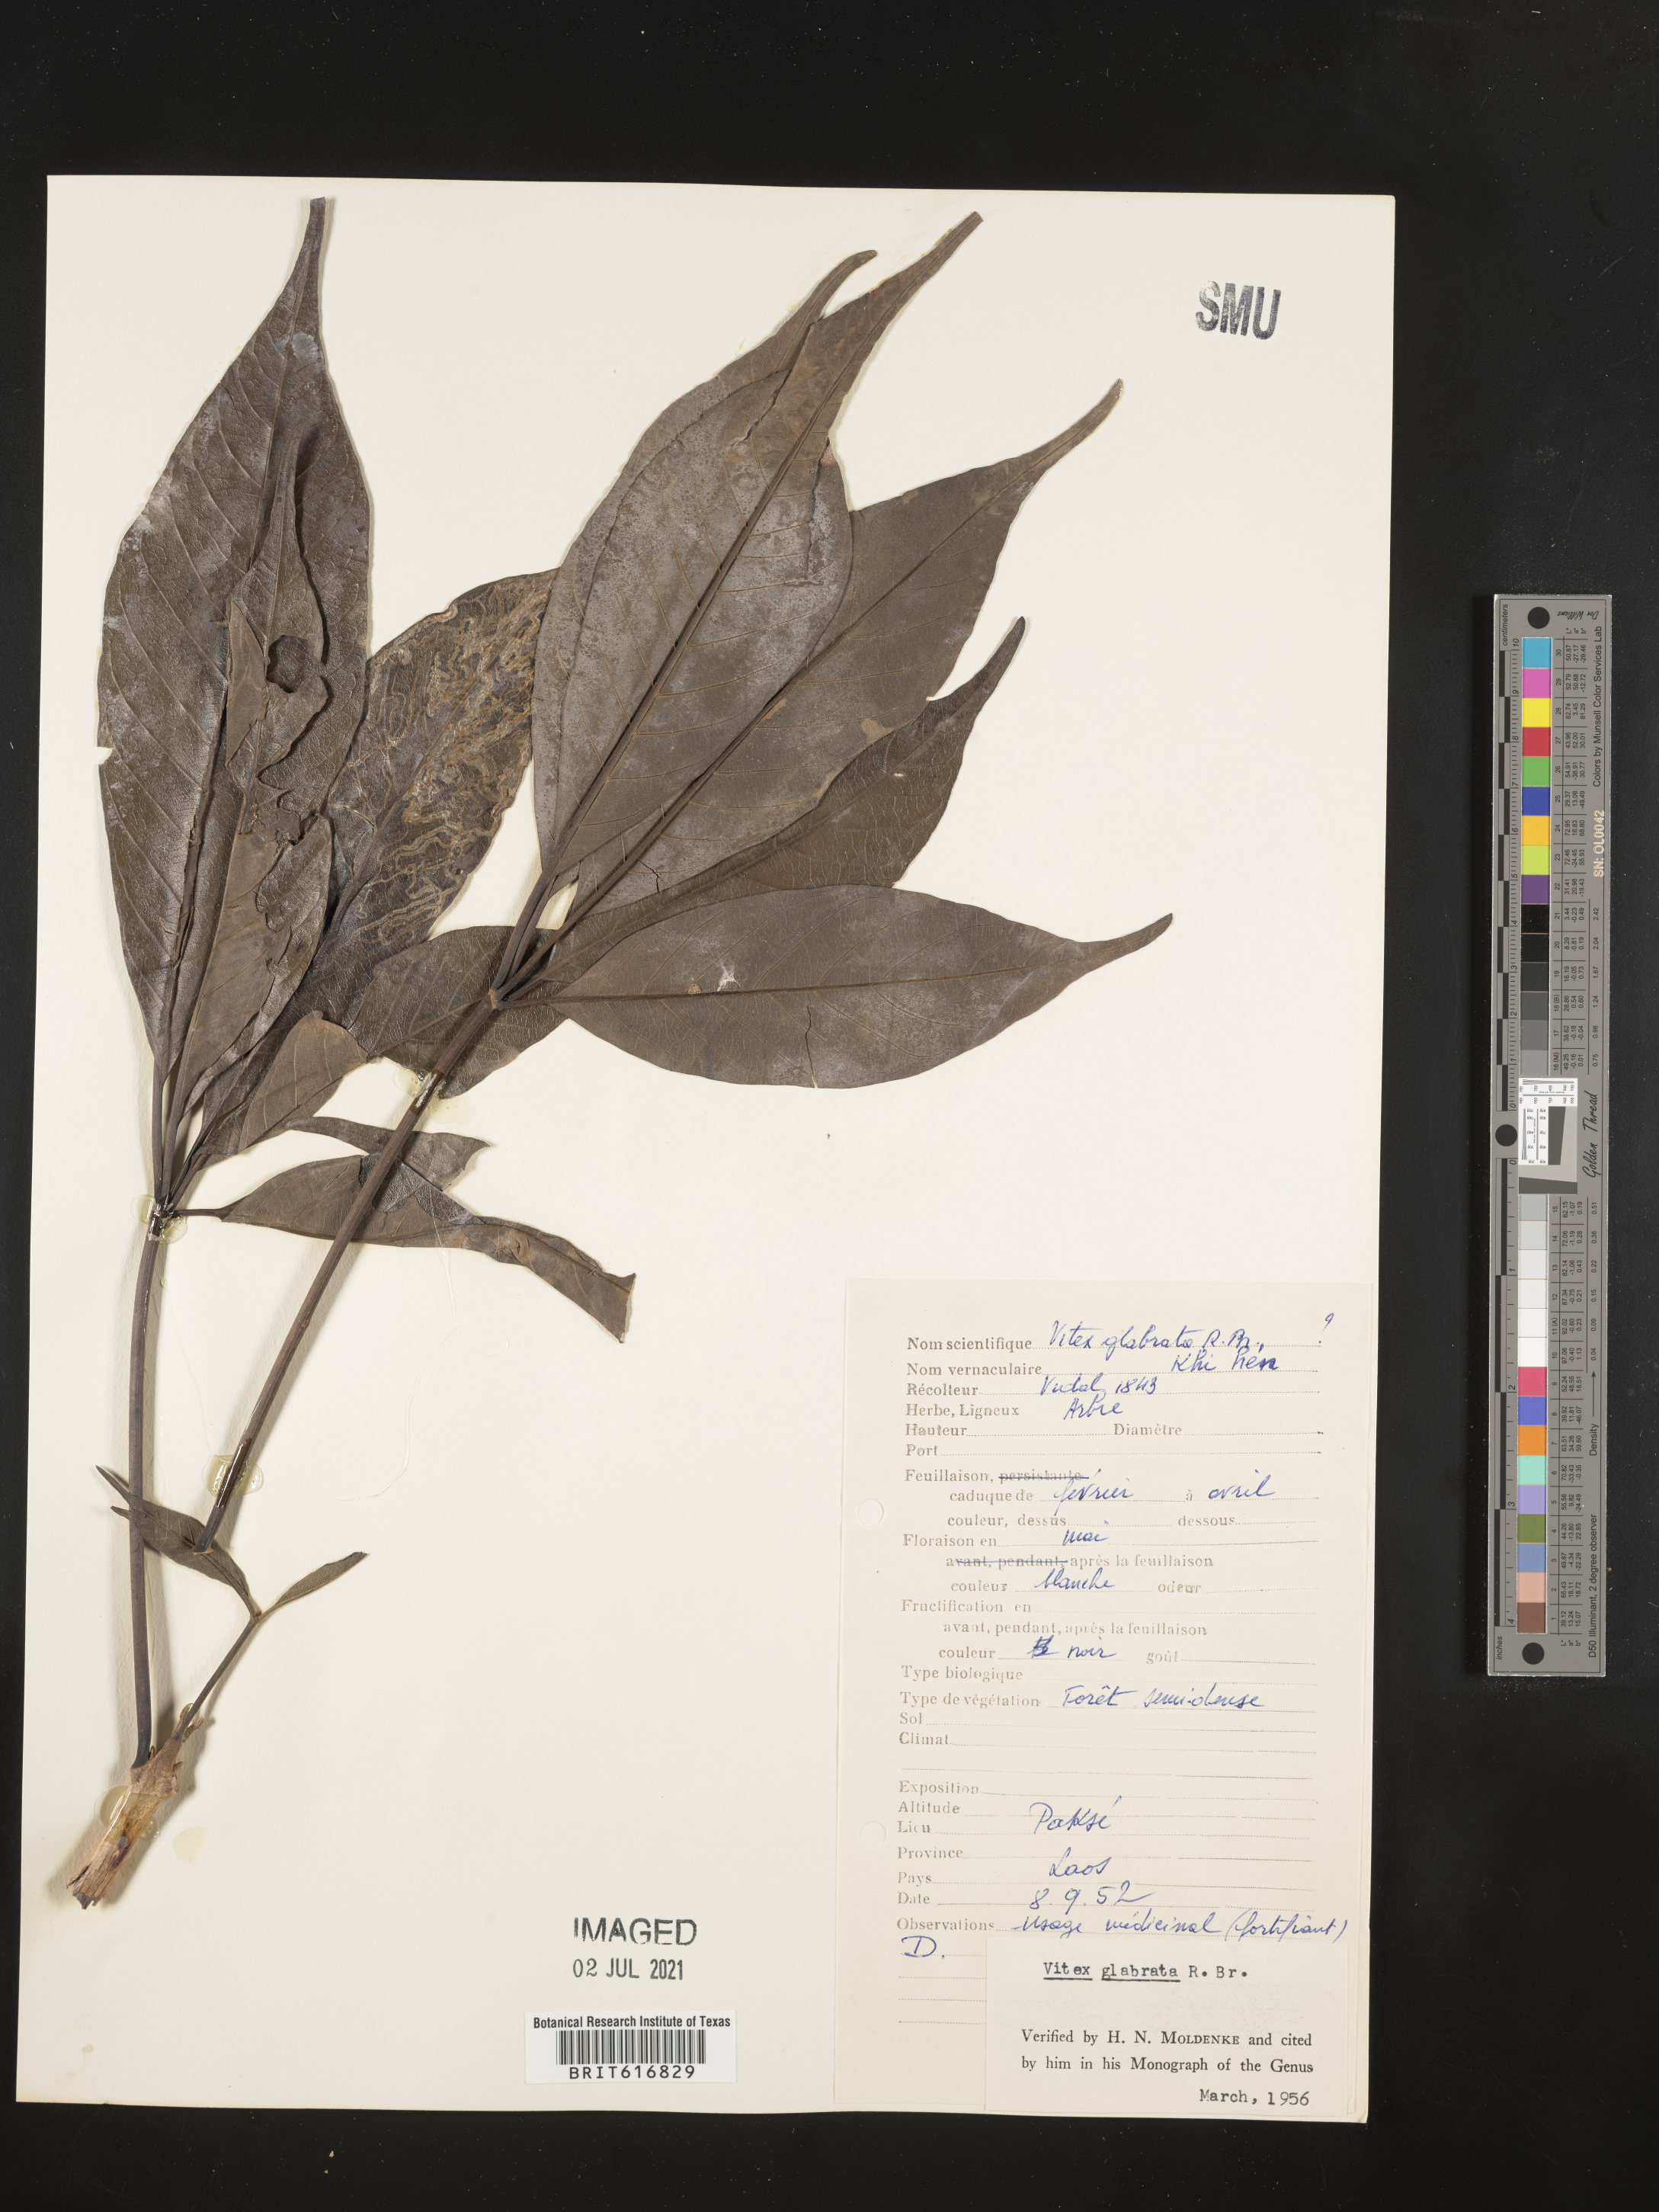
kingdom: Plantae
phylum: Tracheophyta
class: Magnoliopsida
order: Lamiales
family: Lamiaceae
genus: Vitex
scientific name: Vitex glabrata
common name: Smooth chastetree
